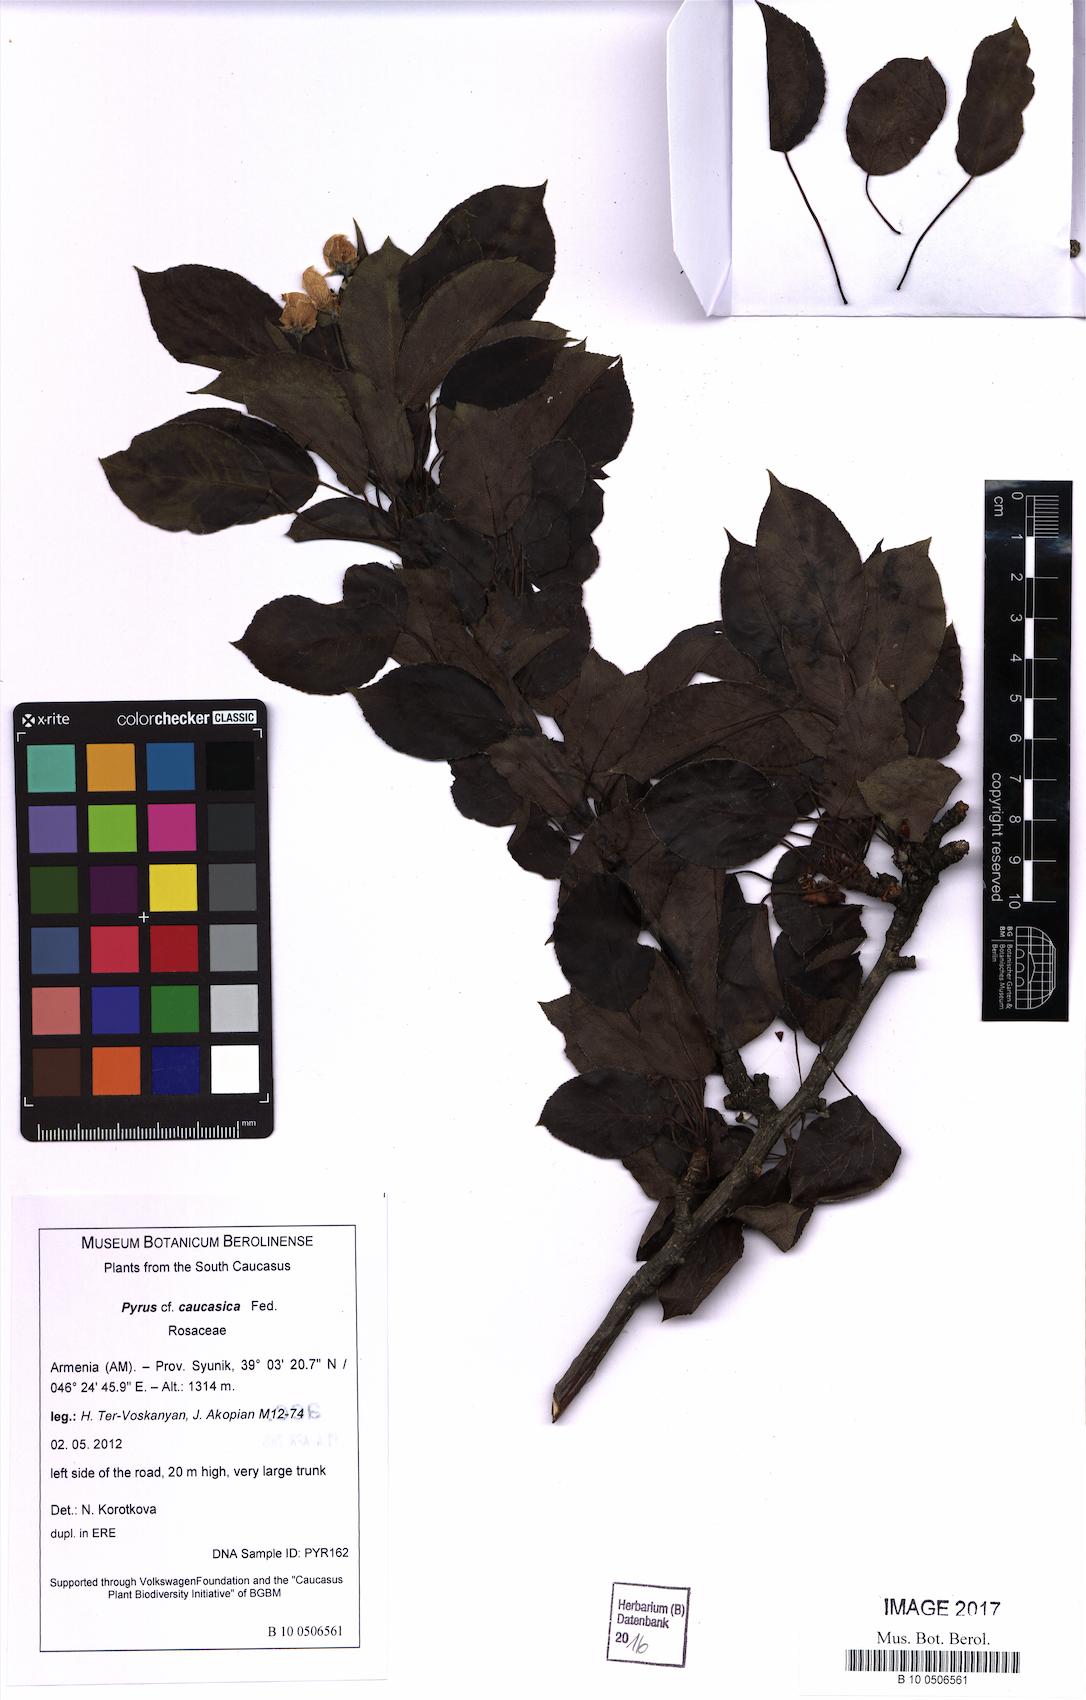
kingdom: Plantae
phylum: Tracheophyta
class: Magnoliopsida
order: Rosales
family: Rosaceae
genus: Pyrus
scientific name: Pyrus communis
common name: Pear
